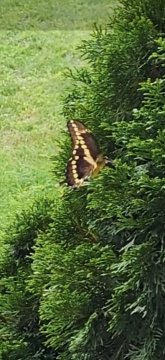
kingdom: Animalia
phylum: Arthropoda
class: Insecta
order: Lepidoptera
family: Papilionidae
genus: Papilio
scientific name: Papilio cresphontes
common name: Eastern Giant Swallowtail
